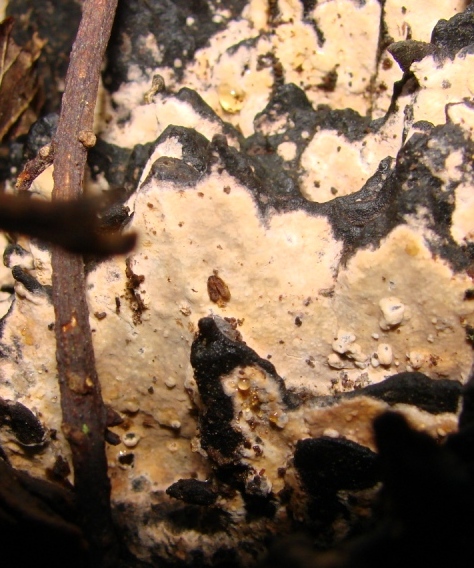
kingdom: Fungi
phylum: Basidiomycota
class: Agaricomycetes
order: Russulales
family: Peniophoraceae
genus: Peniophora
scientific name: Peniophora incarnata
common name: laksefarvet voksskind
